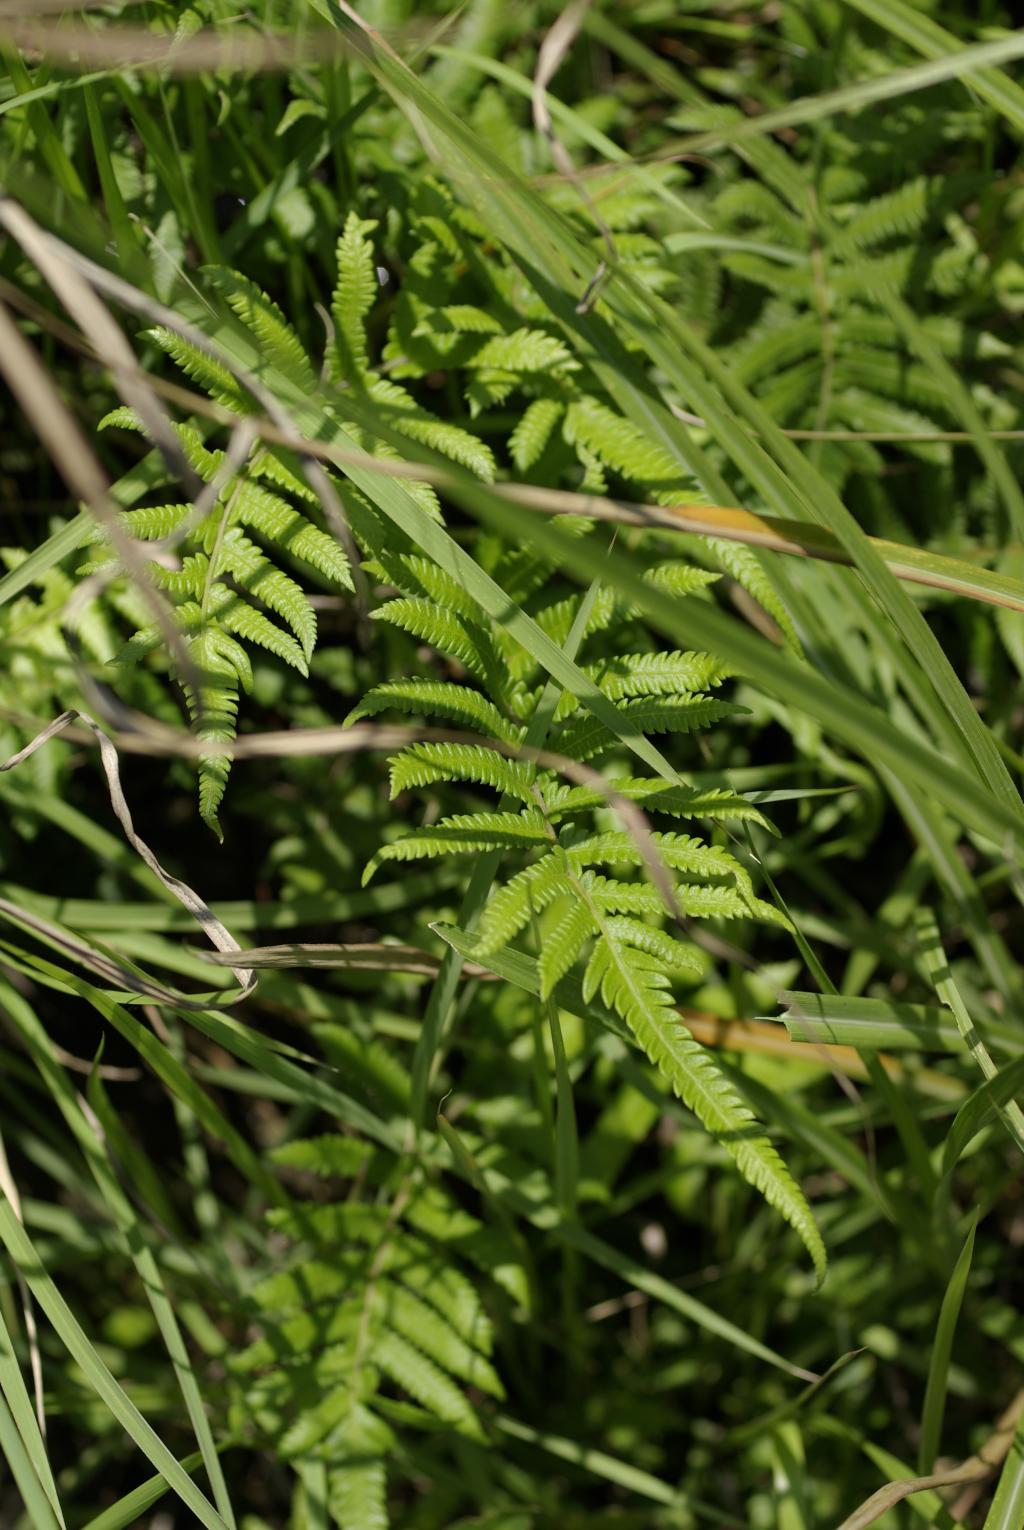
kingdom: Plantae
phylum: Tracheophyta
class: Polypodiopsida
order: Polypodiales
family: Thelypteridaceae
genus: Cyclosorus
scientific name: Cyclosorus acuminatus
